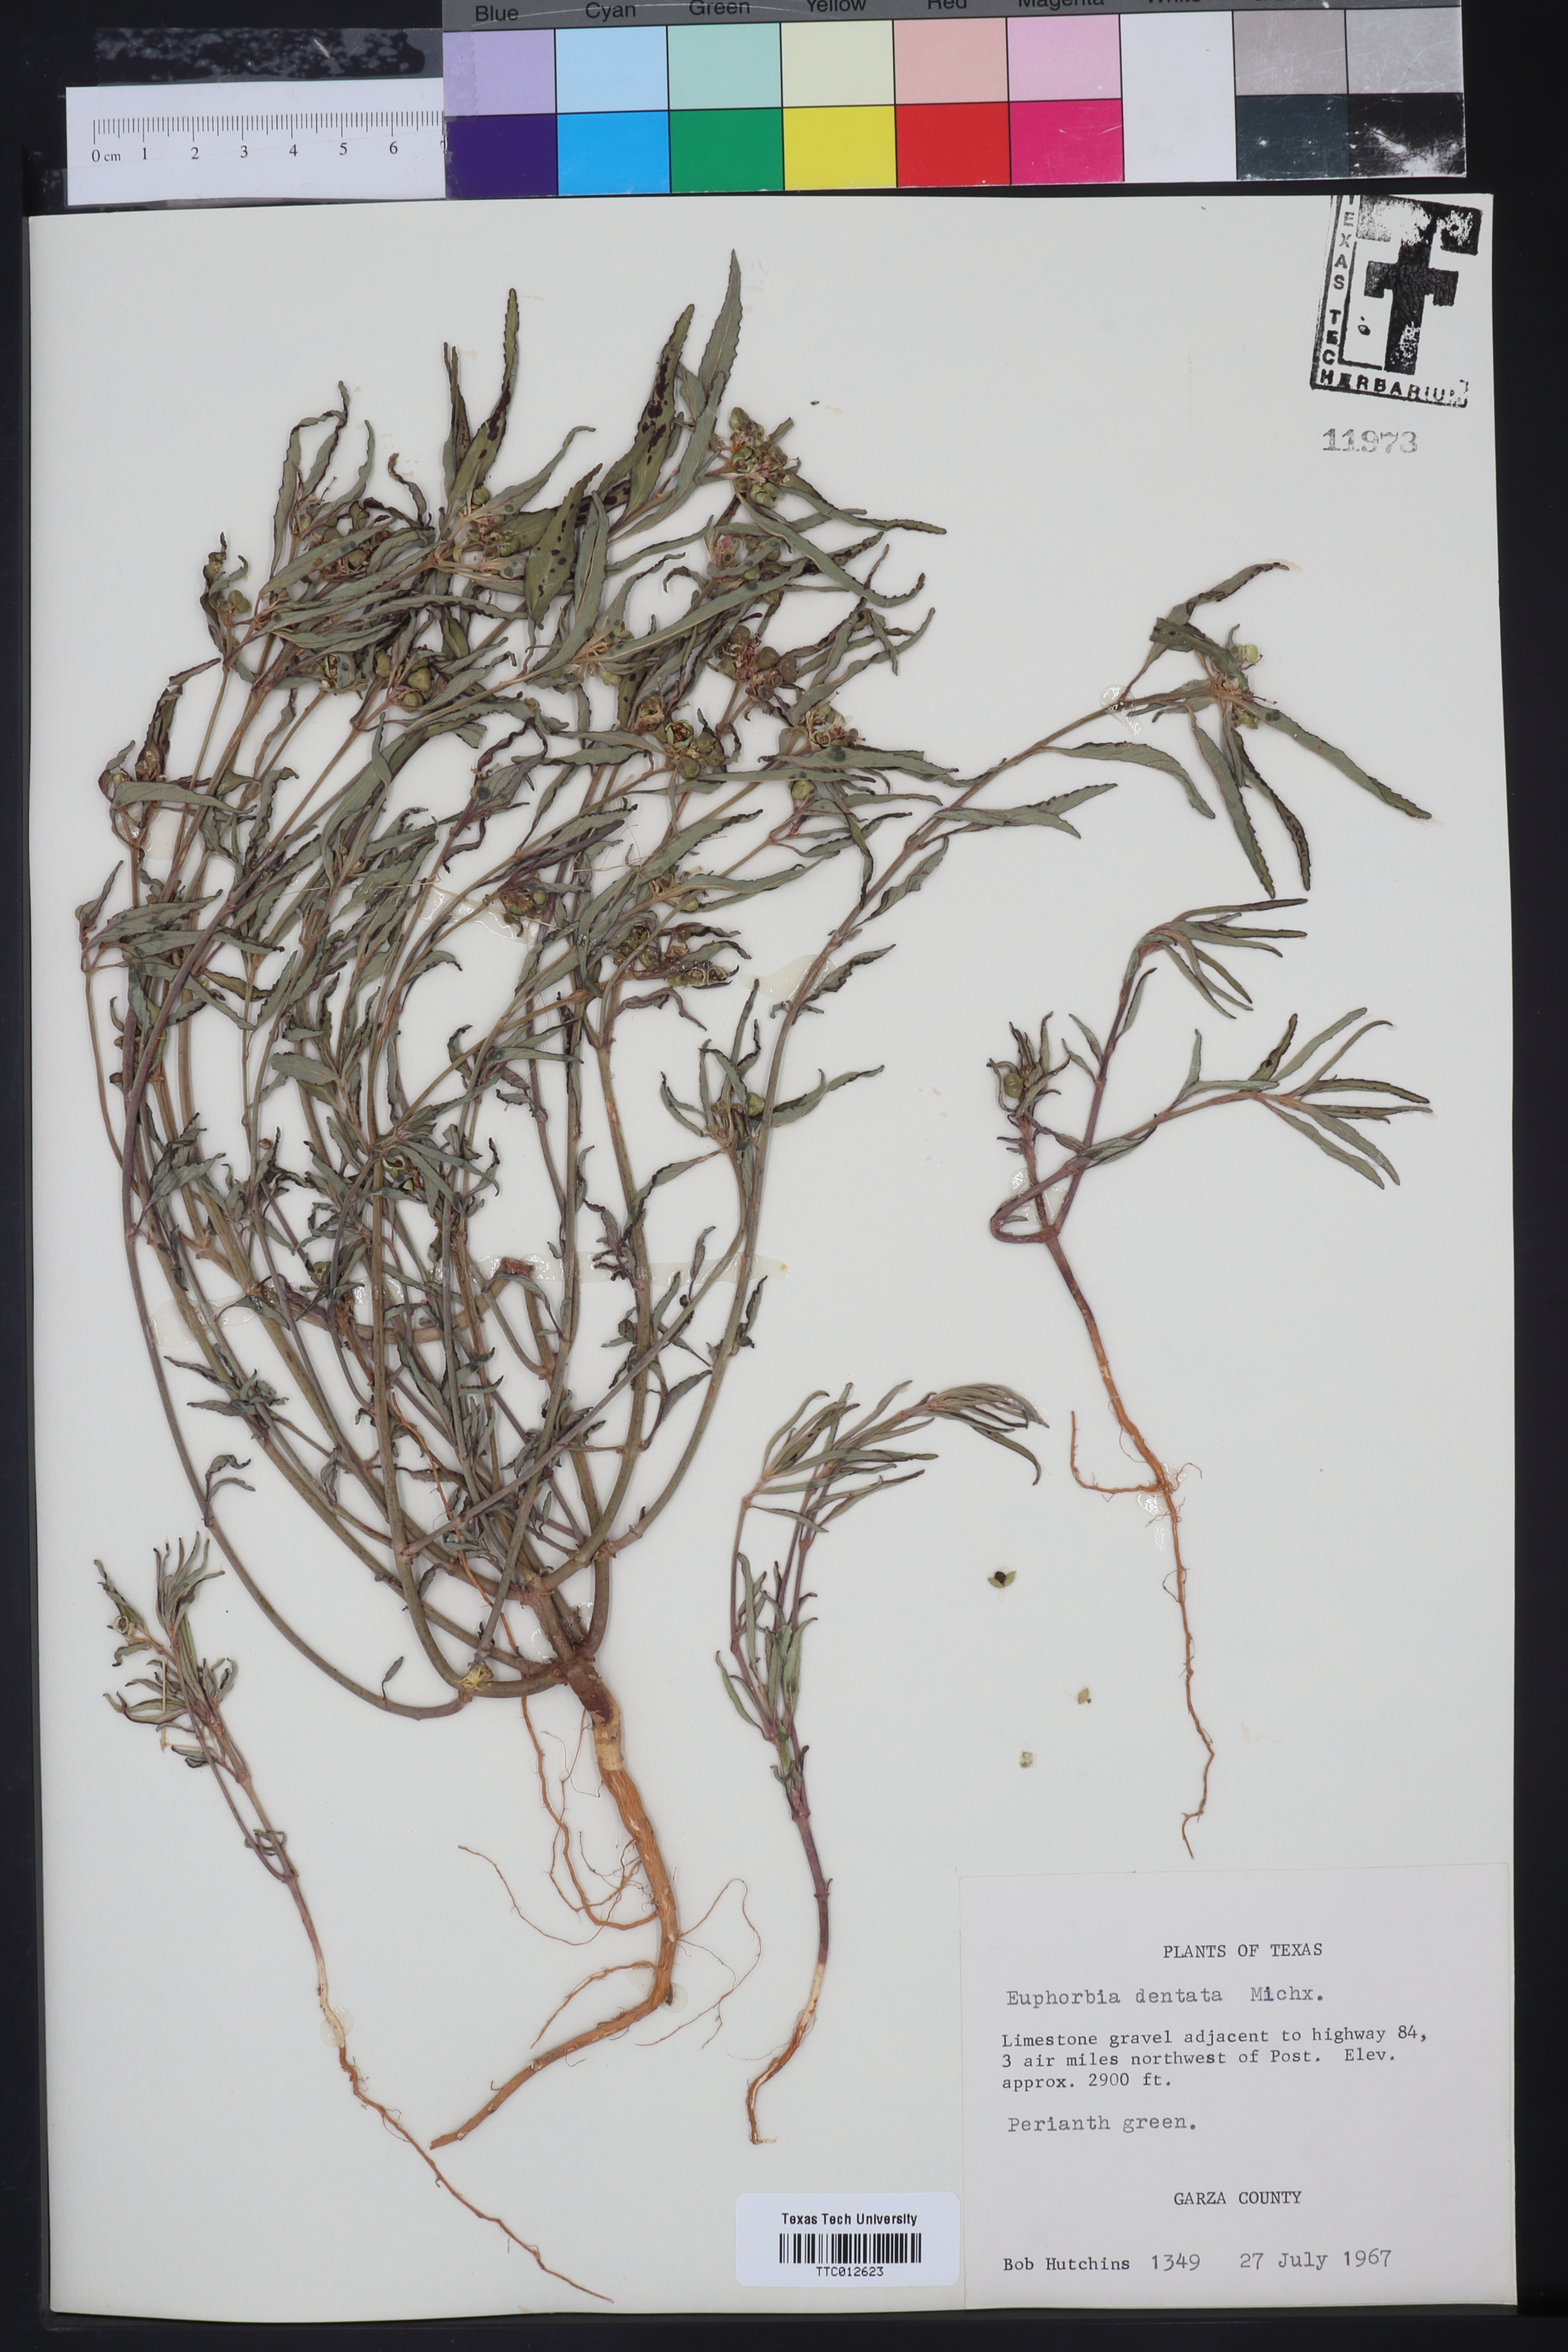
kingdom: Plantae
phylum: Tracheophyta
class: Magnoliopsida
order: Malpighiales
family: Euphorbiaceae
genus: Euphorbia
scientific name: Euphorbia dentata
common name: Dentate spurge
